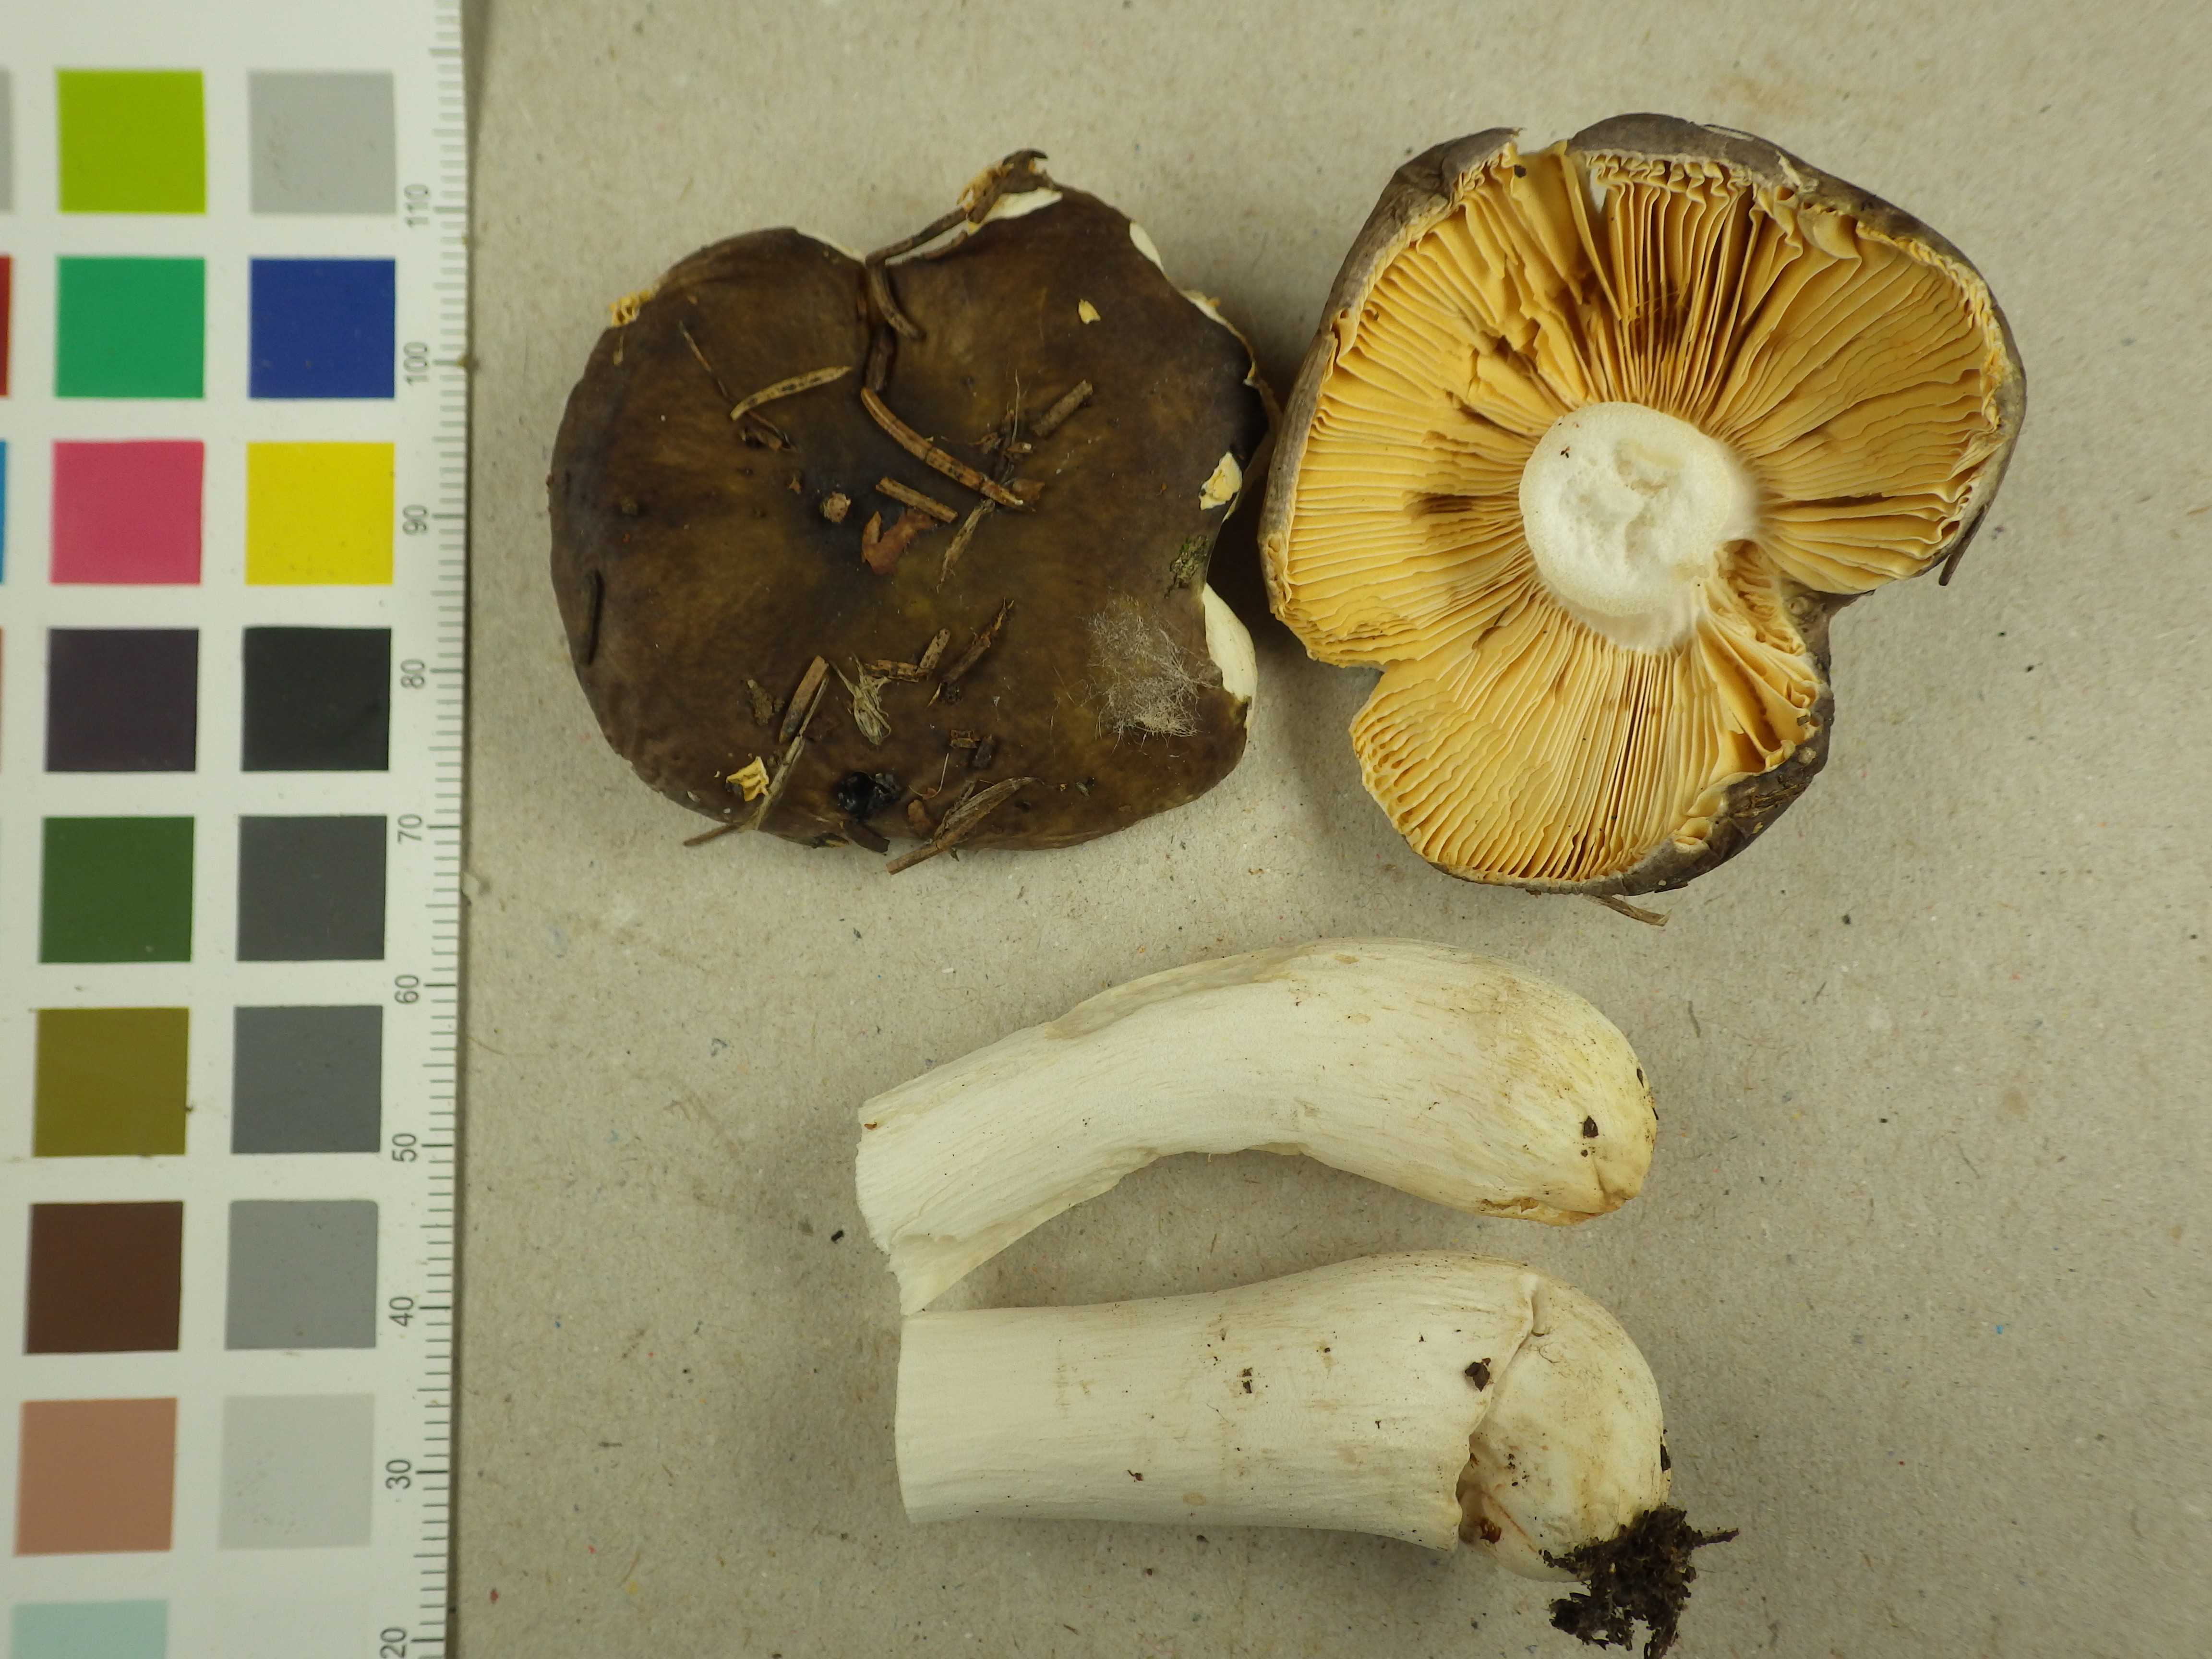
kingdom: Fungi
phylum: Basidiomycota
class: Agaricomycetes
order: Russulales
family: Russulaceae
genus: Russula
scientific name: Russula integra
